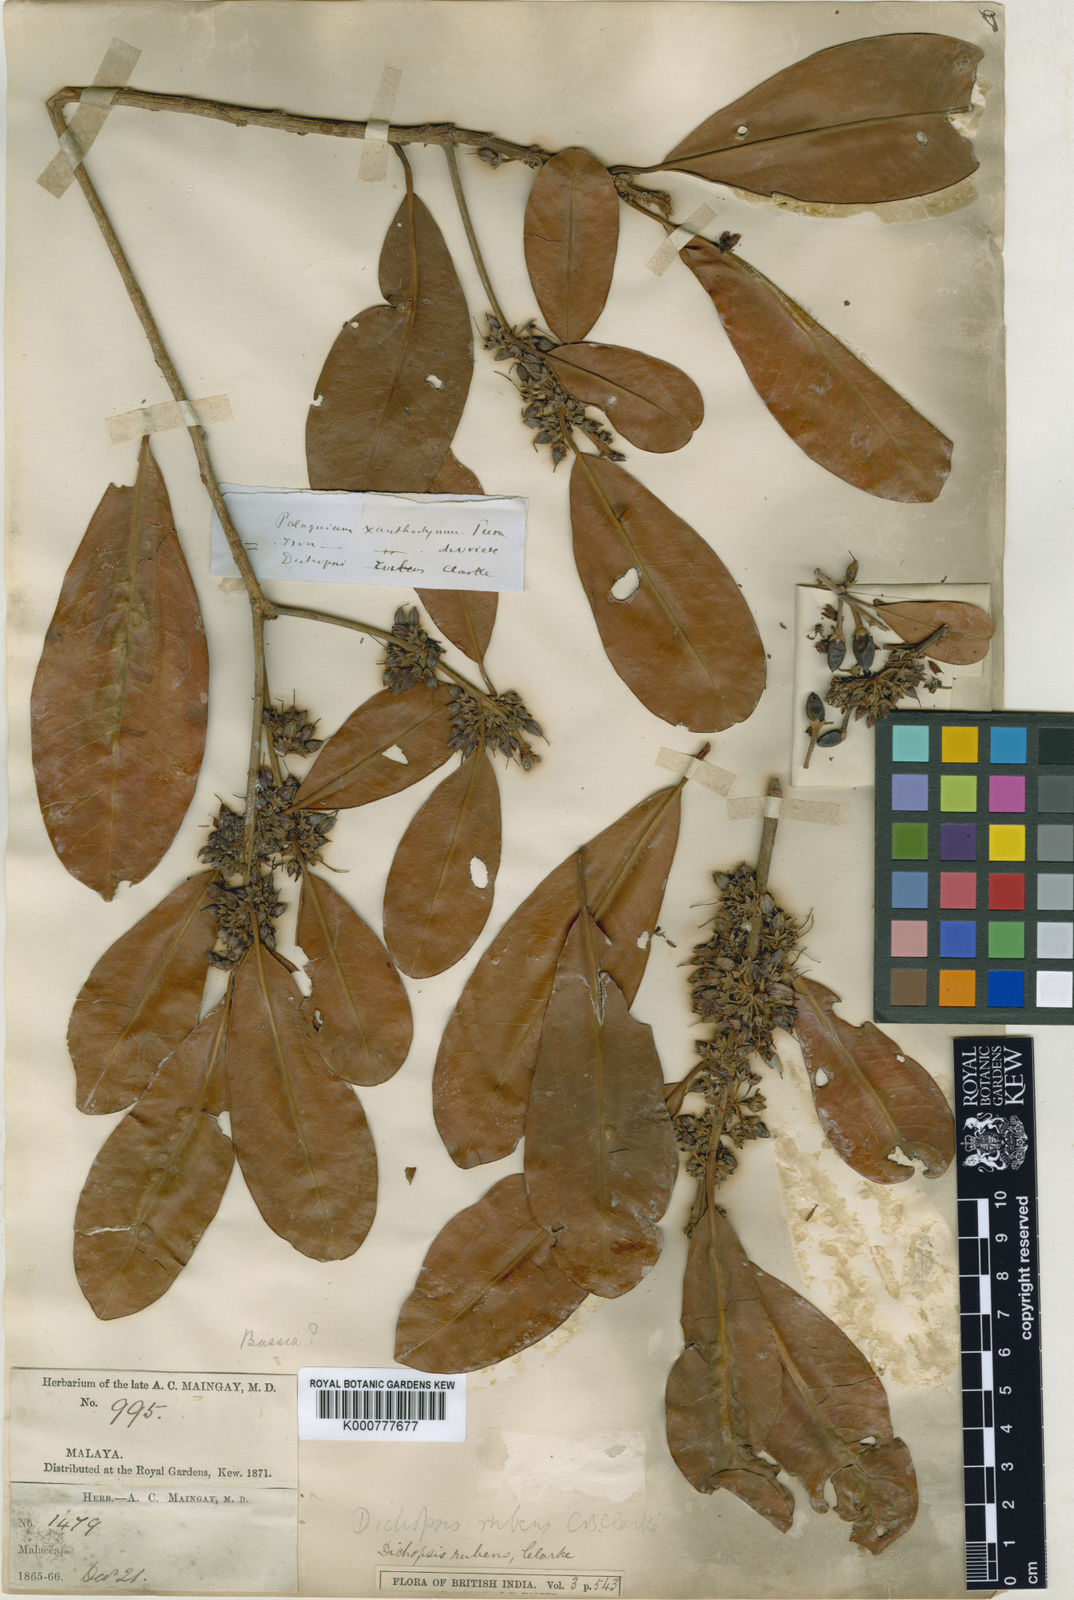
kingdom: Plantae
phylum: Tracheophyta
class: Magnoliopsida
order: Ericales
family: Sapotaceae
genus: Palaquium
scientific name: Palaquium xanthochymum
